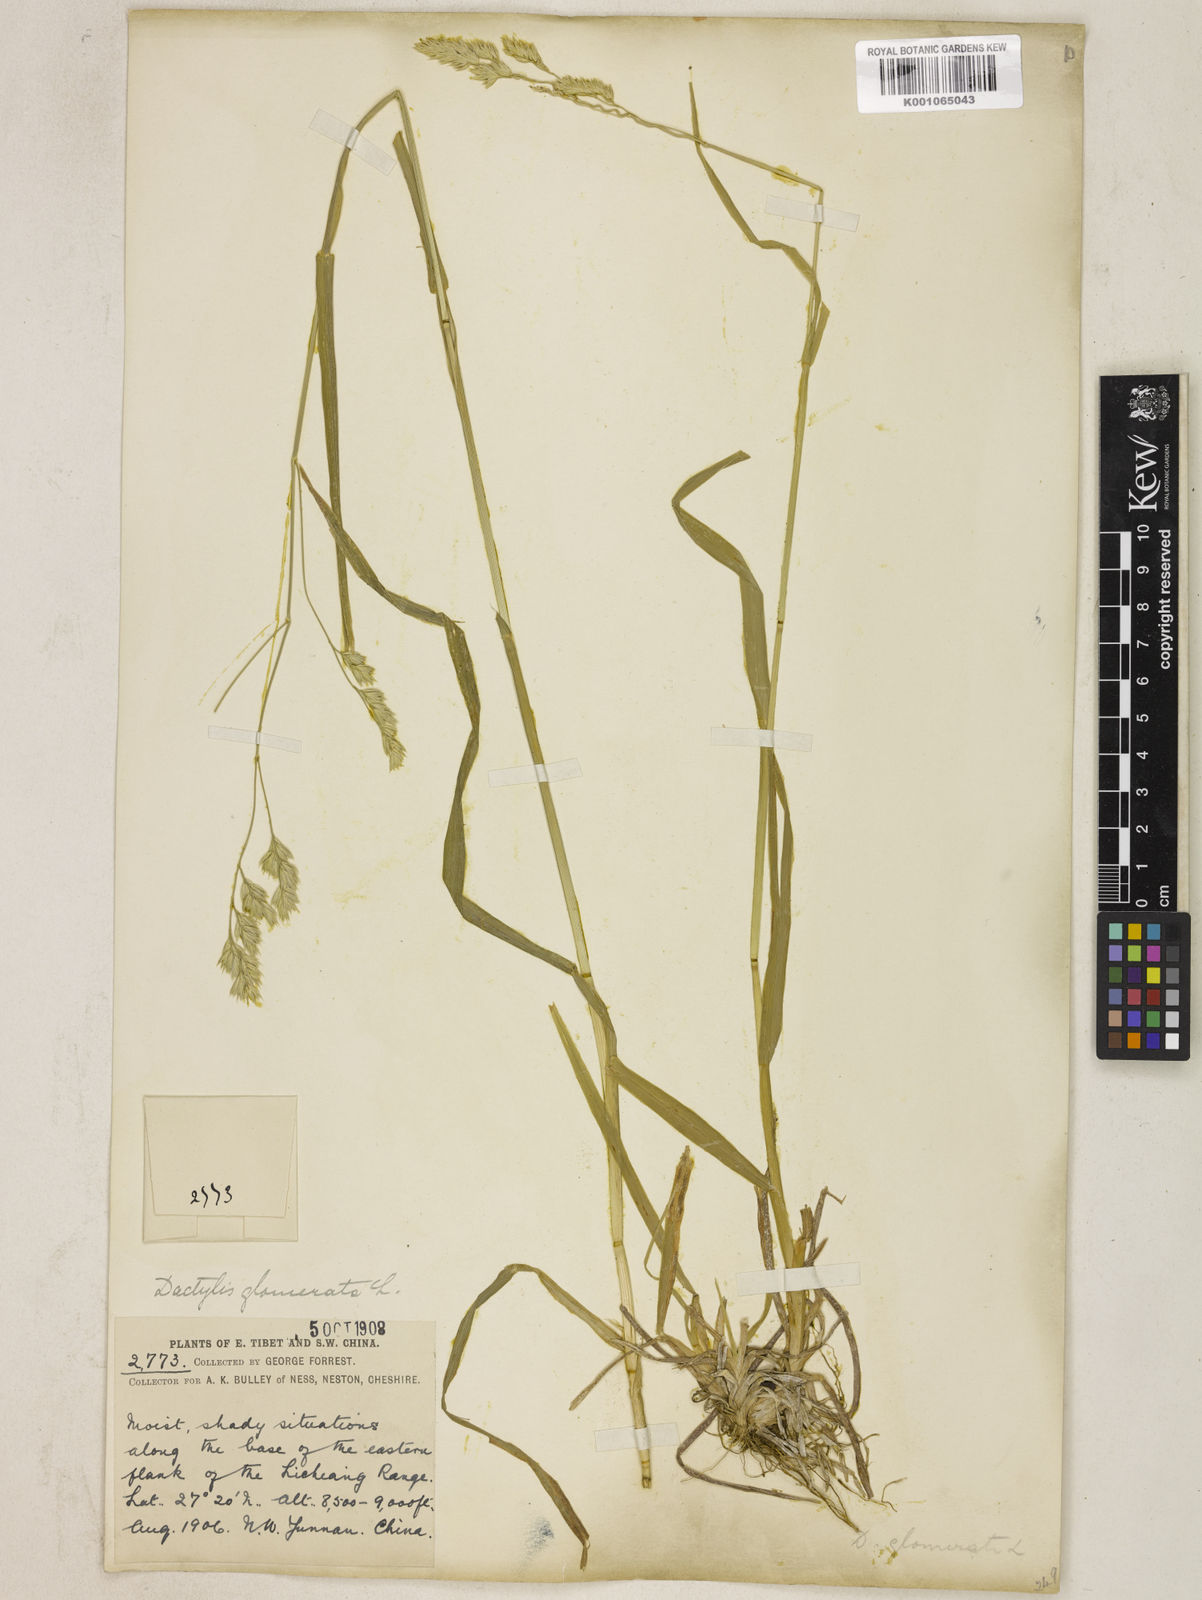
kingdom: Plantae
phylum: Tracheophyta
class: Liliopsida
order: Poales
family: Poaceae
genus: Dactylis
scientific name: Dactylis glomerata
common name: Orchardgrass
